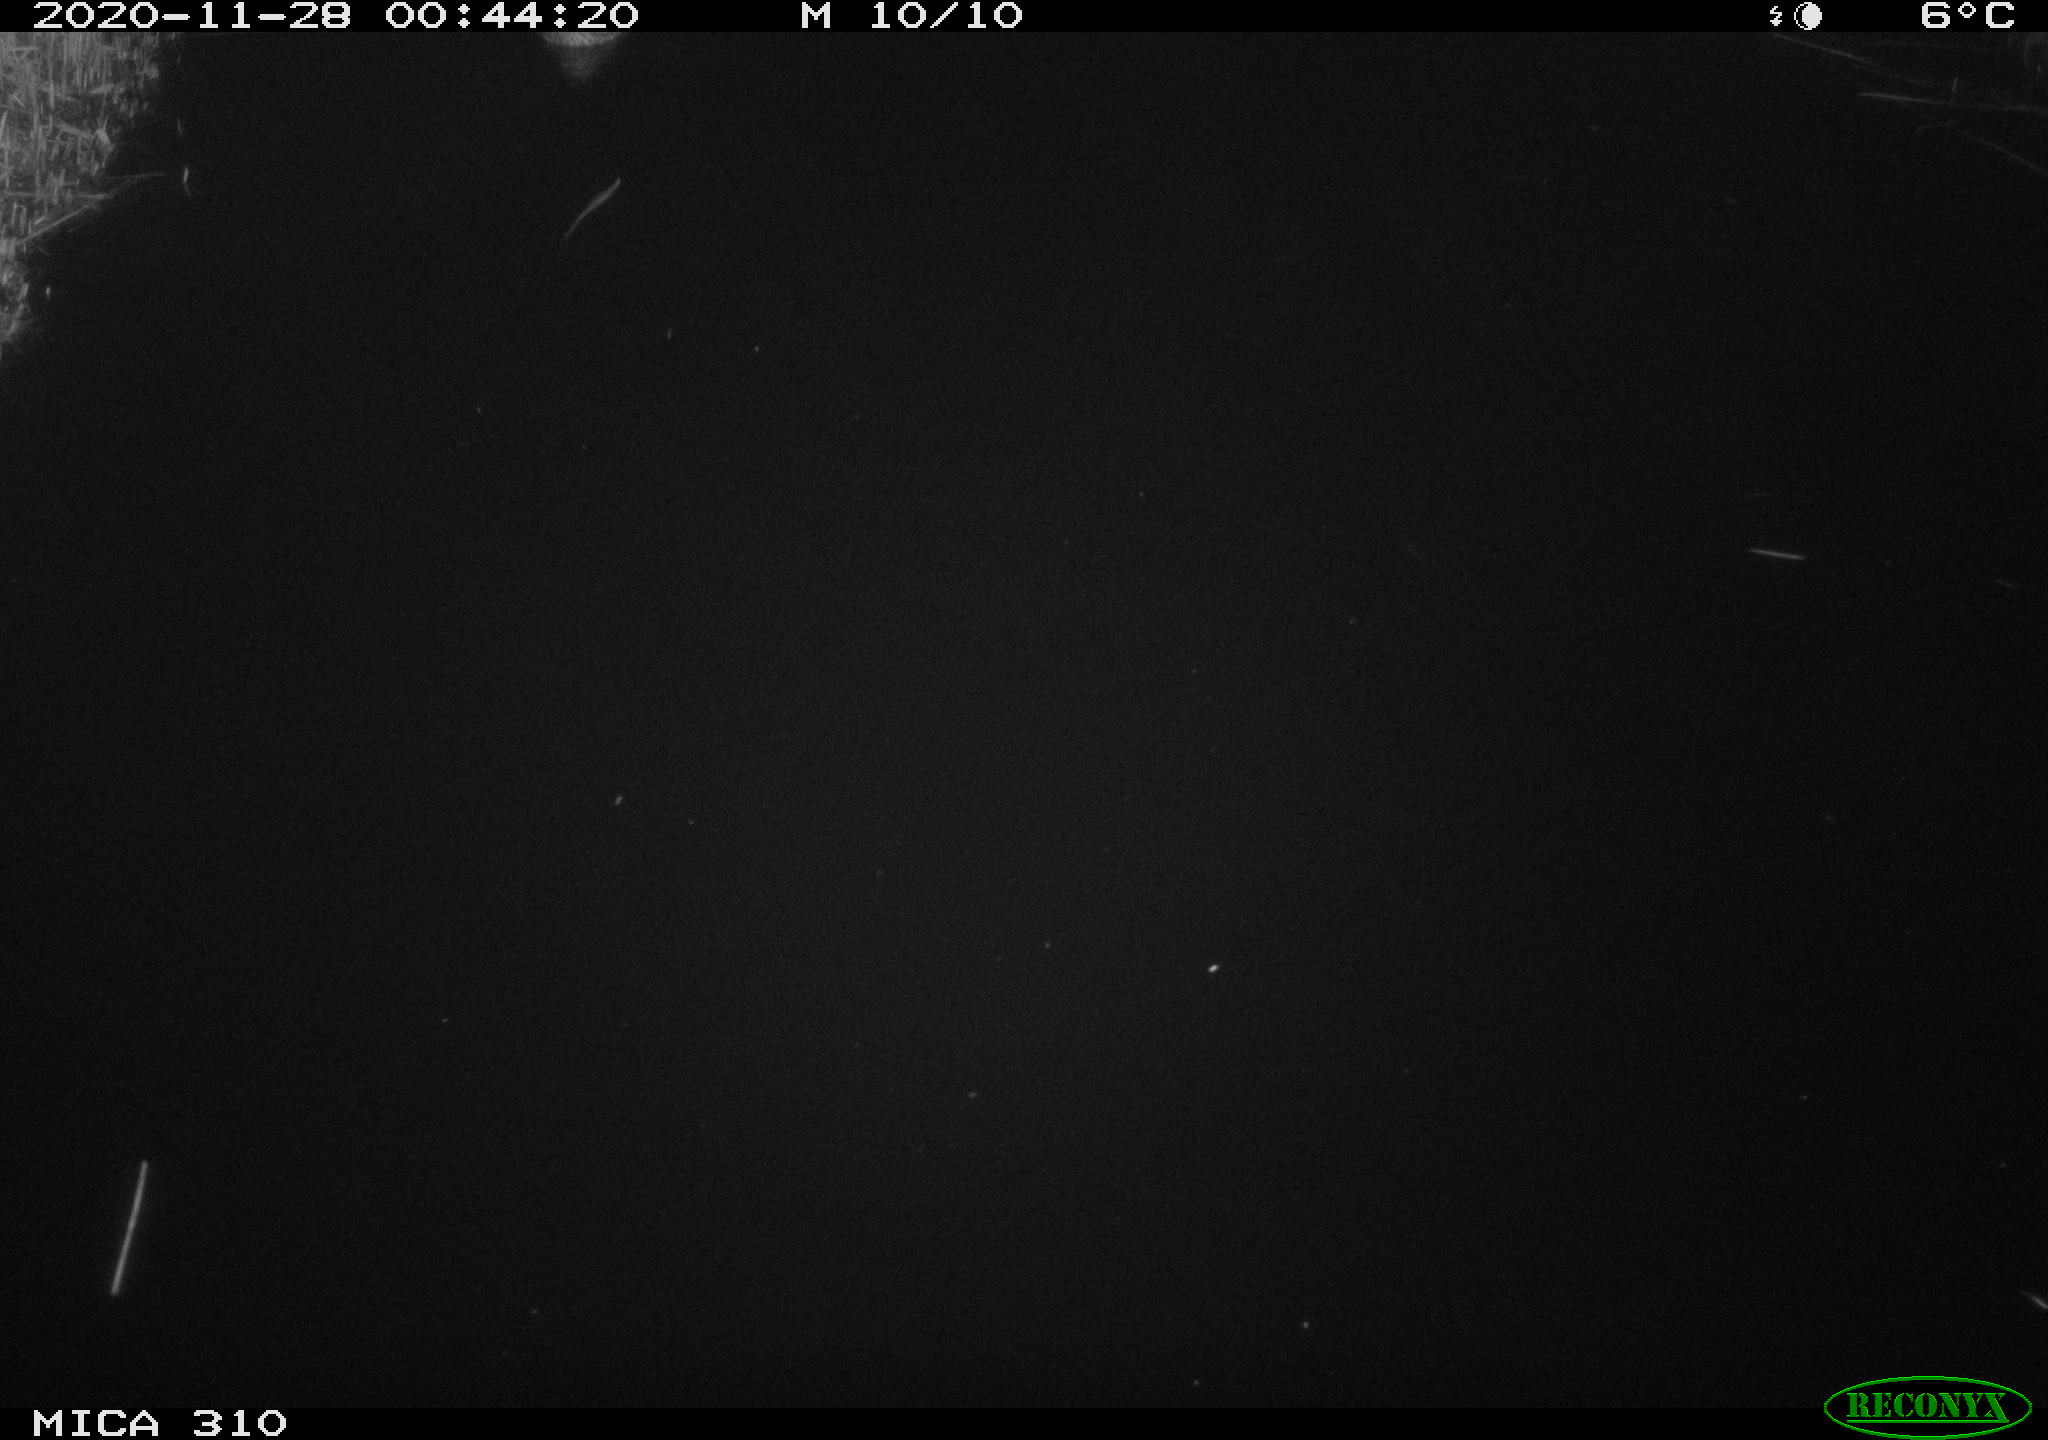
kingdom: Animalia
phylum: Chordata
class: Aves
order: Anseriformes
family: Anatidae
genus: Anas
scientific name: Anas platyrhynchos
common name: Mallard
